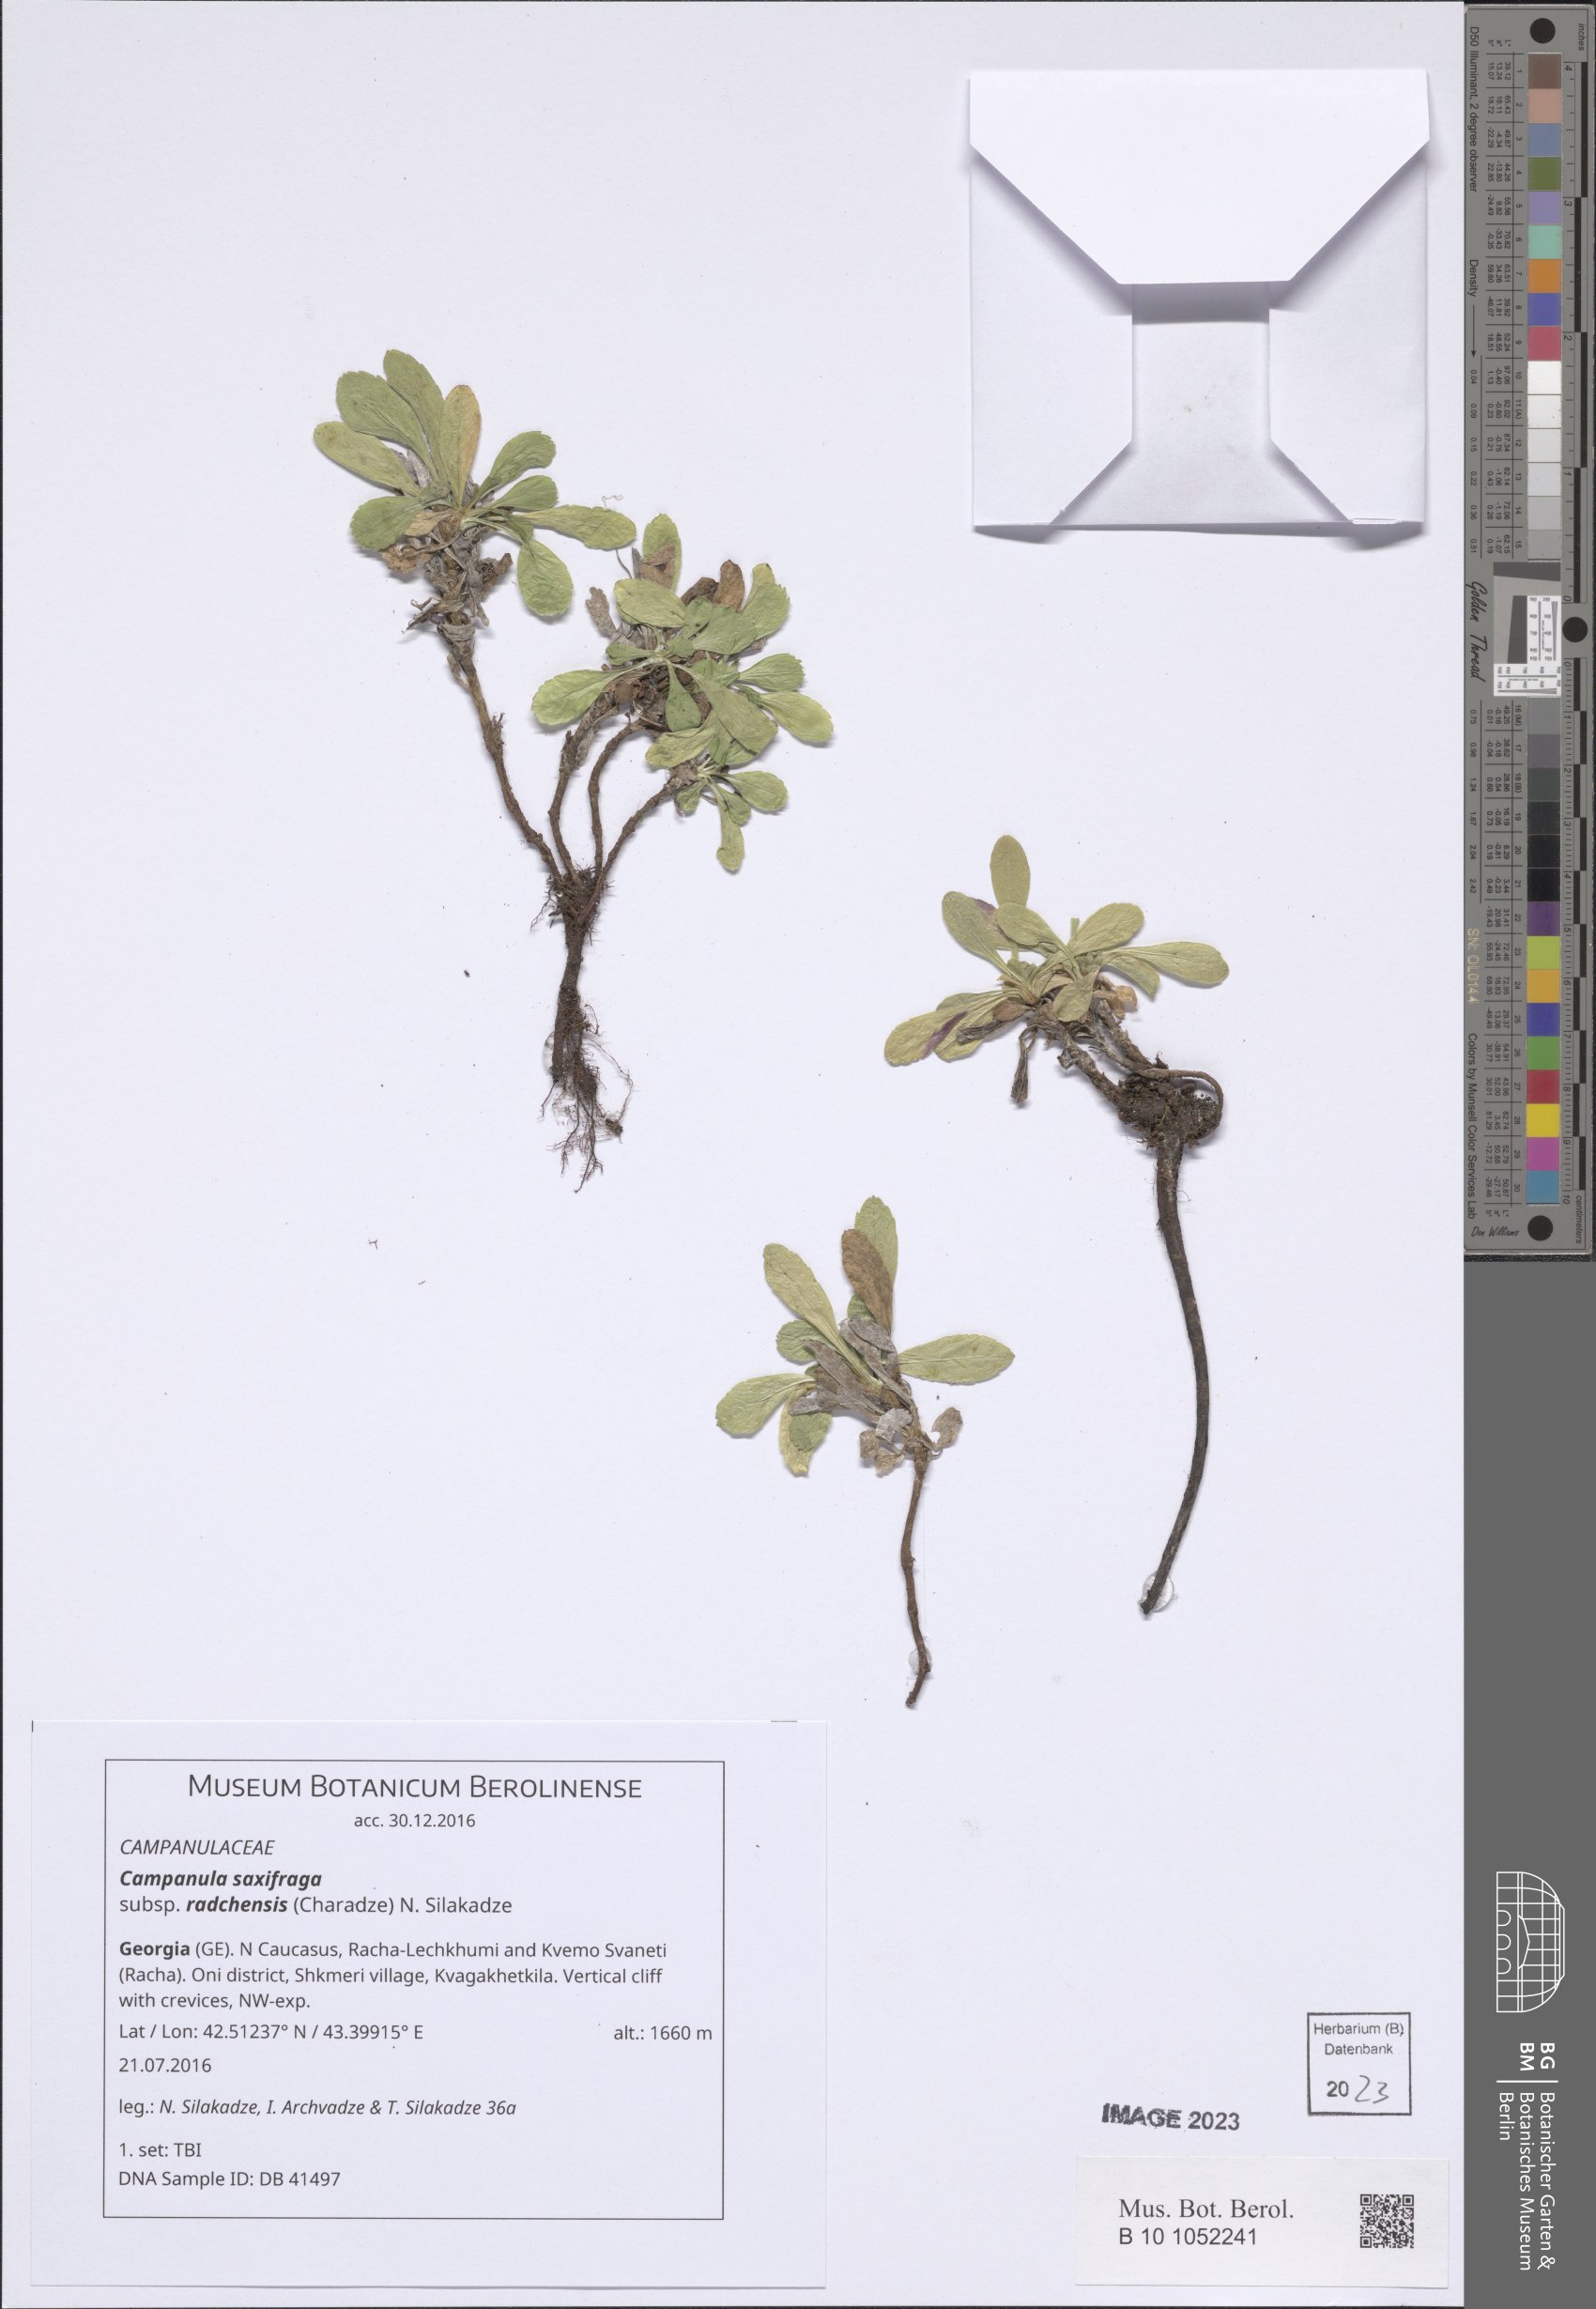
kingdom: Plantae
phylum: Tracheophyta
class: Magnoliopsida
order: Asterales
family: Campanulaceae
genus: Campanula
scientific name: Campanula saxifraga
